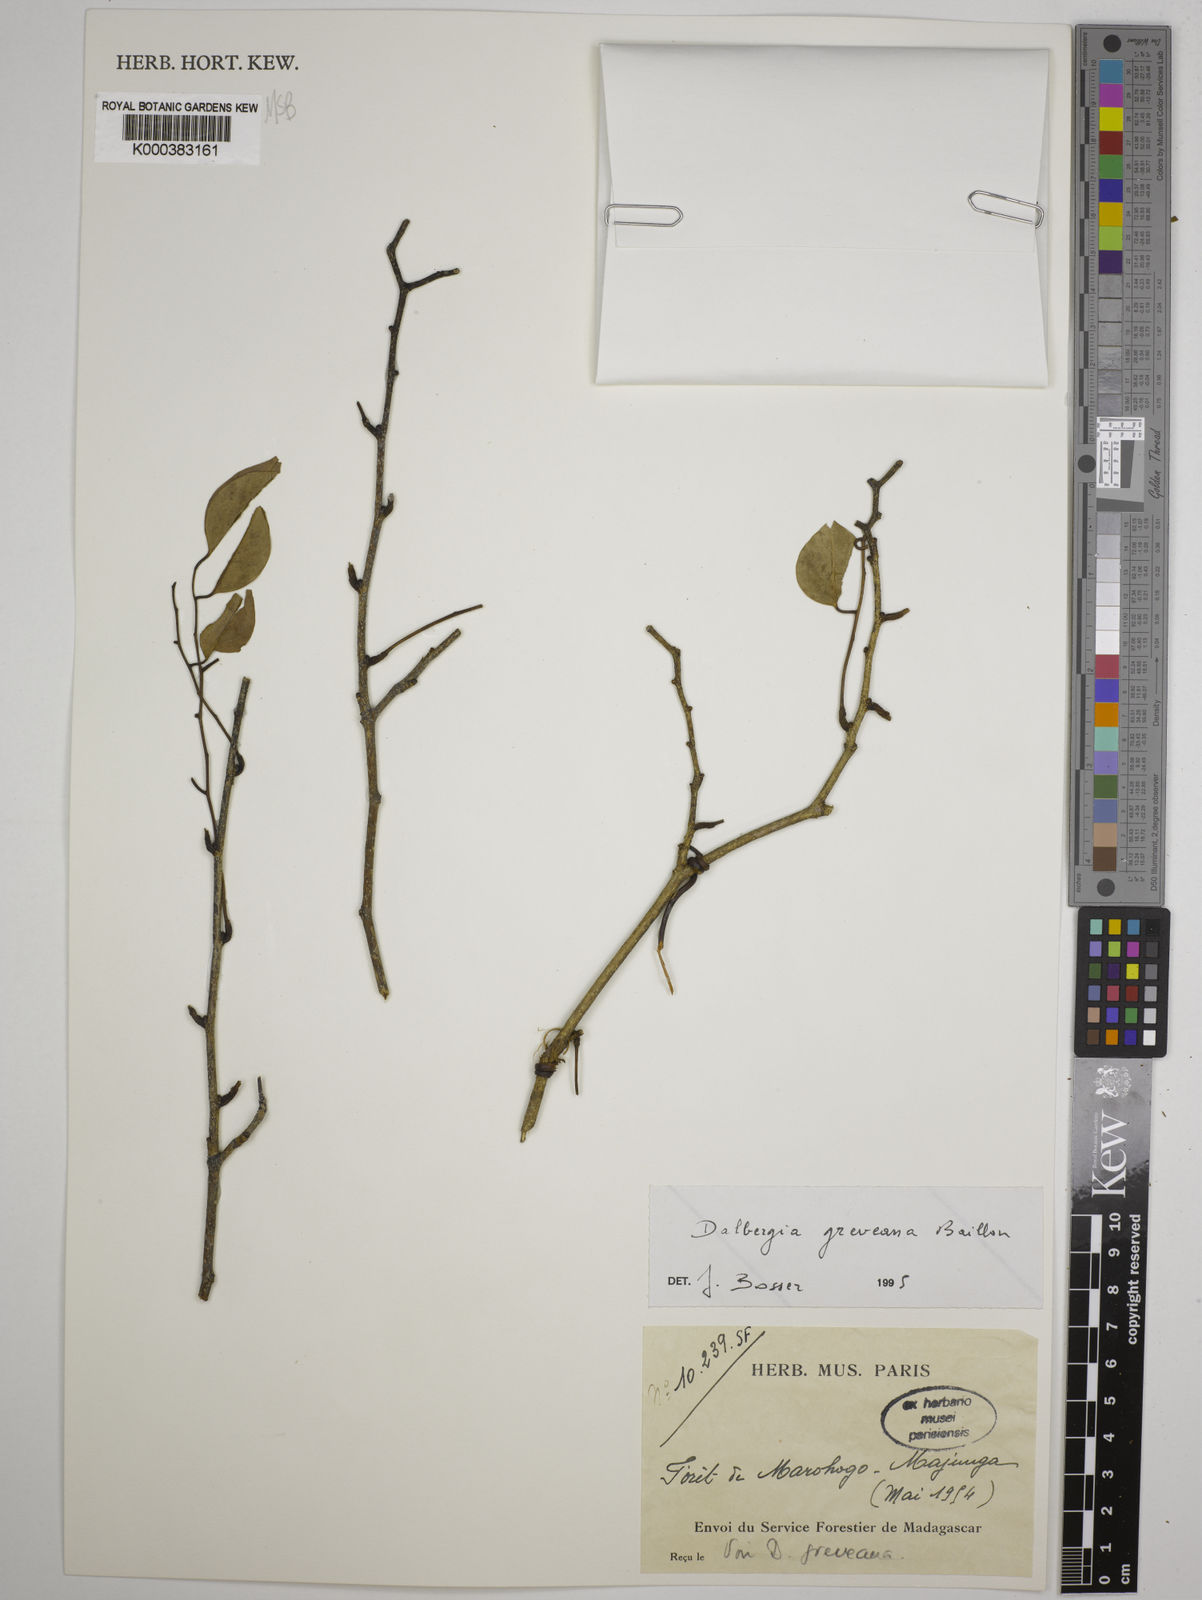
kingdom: Plantae
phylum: Tracheophyta
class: Magnoliopsida
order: Fabales
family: Fabaceae
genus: Dalbergia
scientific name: Dalbergia greveana
